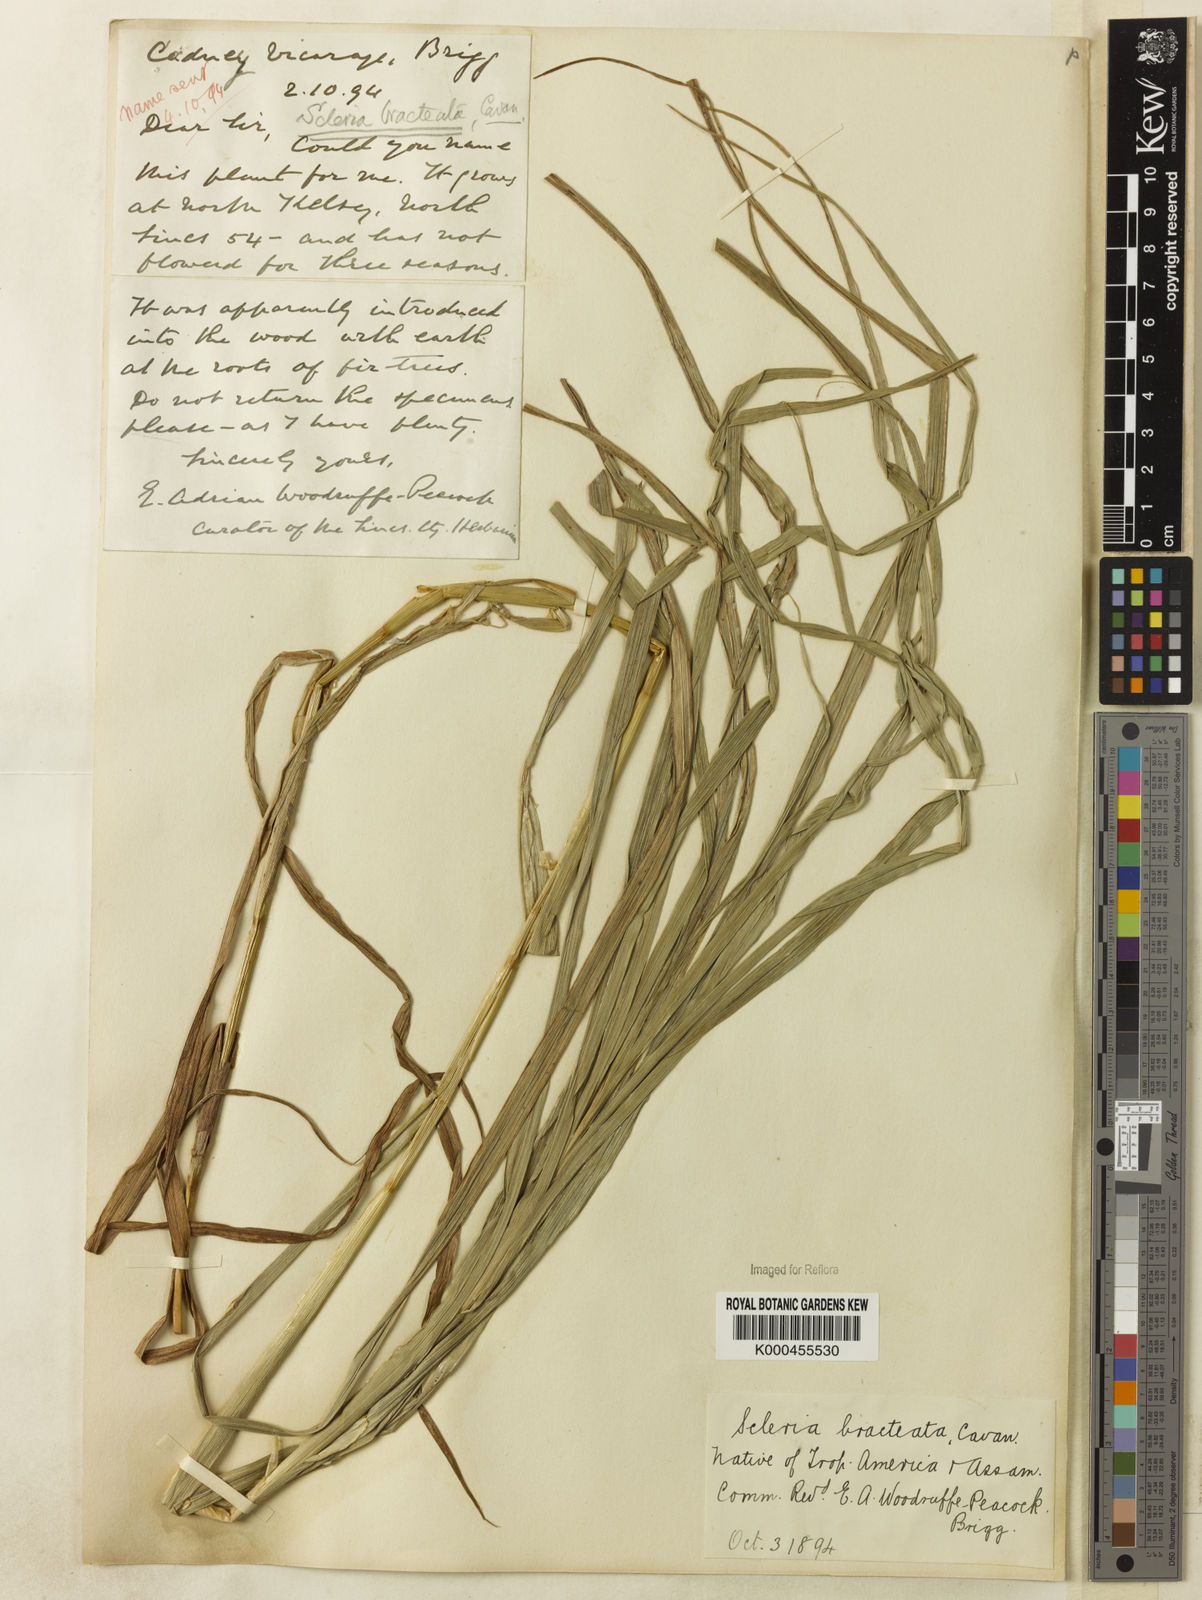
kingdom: Plantae
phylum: Tracheophyta
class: Liliopsida
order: Poales
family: Cyperaceae
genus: Scleria
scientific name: Scleria bracteata
